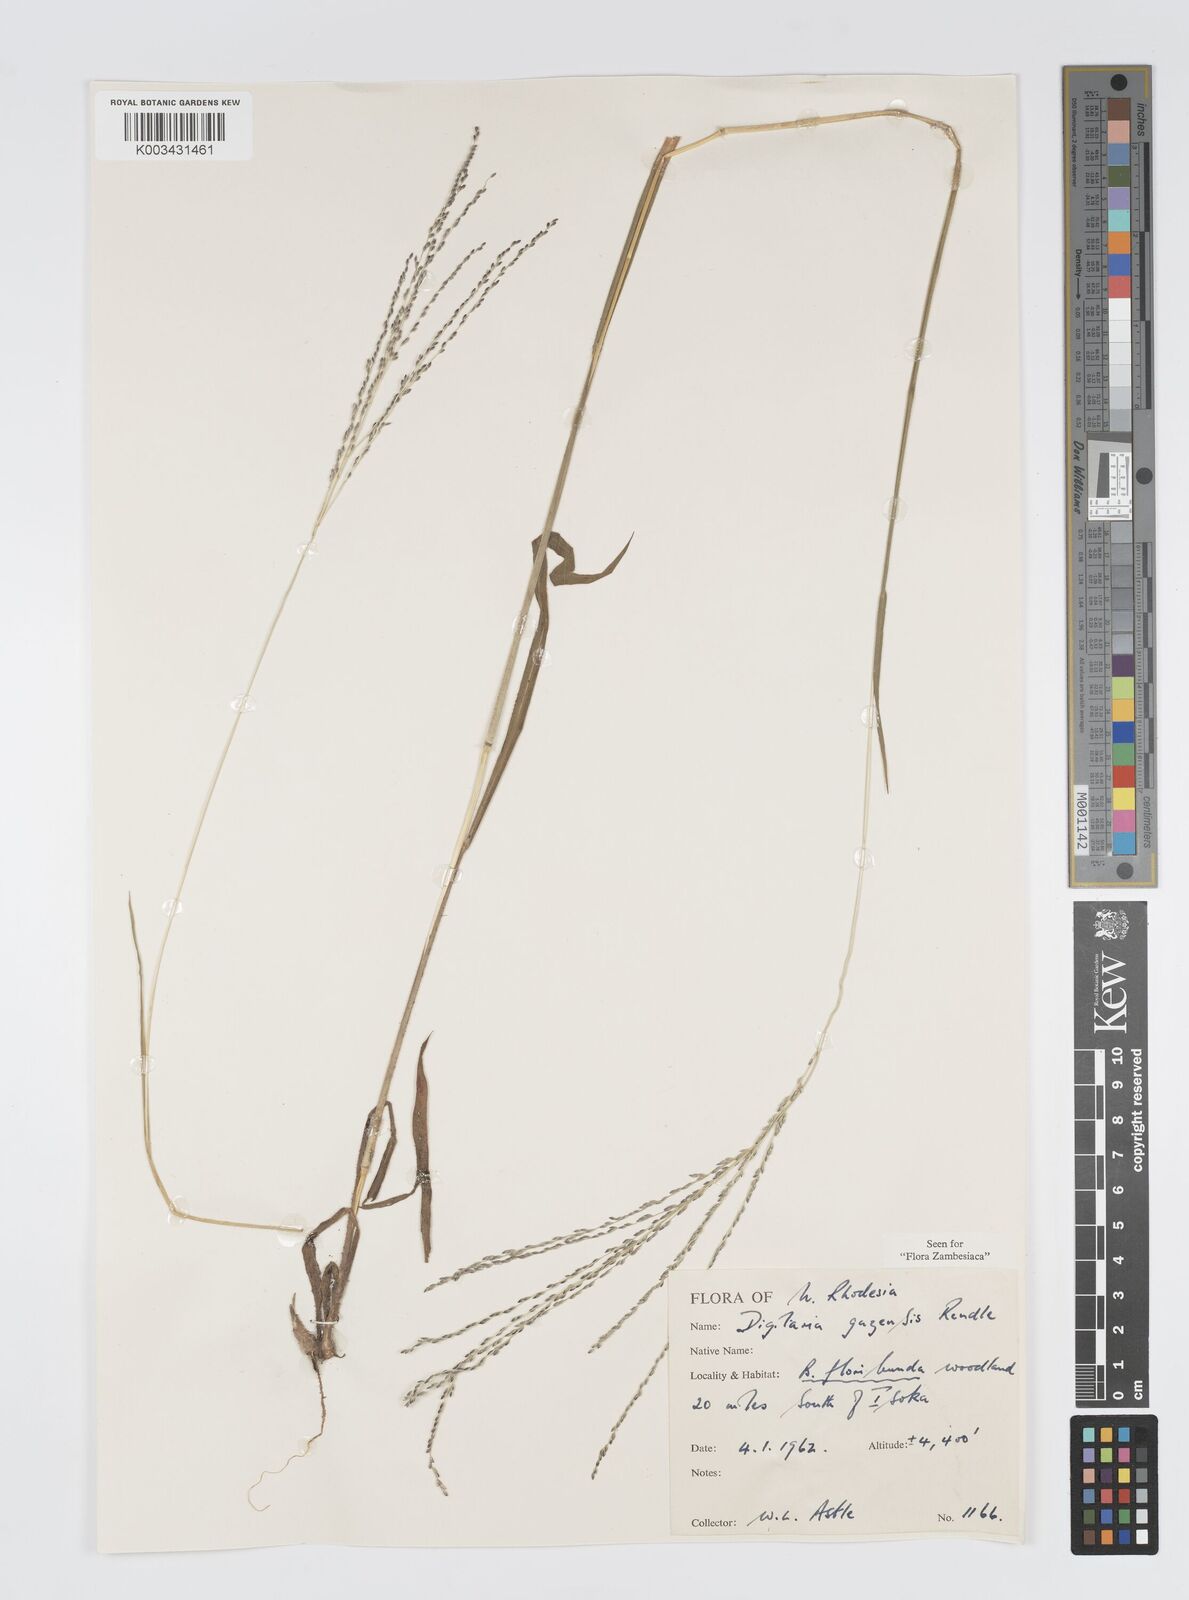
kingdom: Plantae
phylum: Tracheophyta
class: Liliopsida
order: Poales
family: Poaceae
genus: Digitaria
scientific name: Digitaria gazensis
